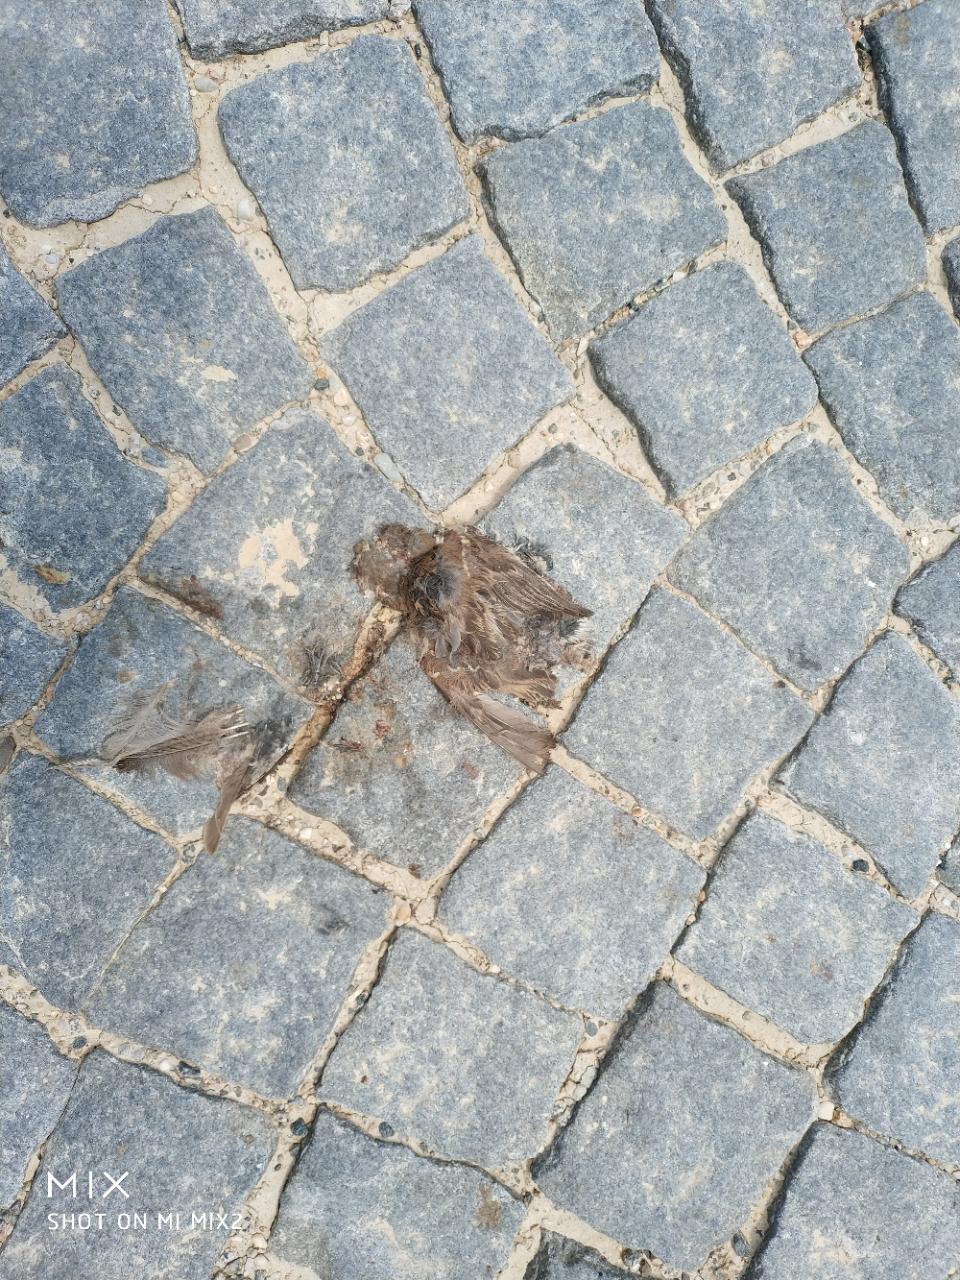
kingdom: Animalia
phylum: Chordata
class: Aves
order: Passeriformes
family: Passeridae
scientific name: Passeridae
